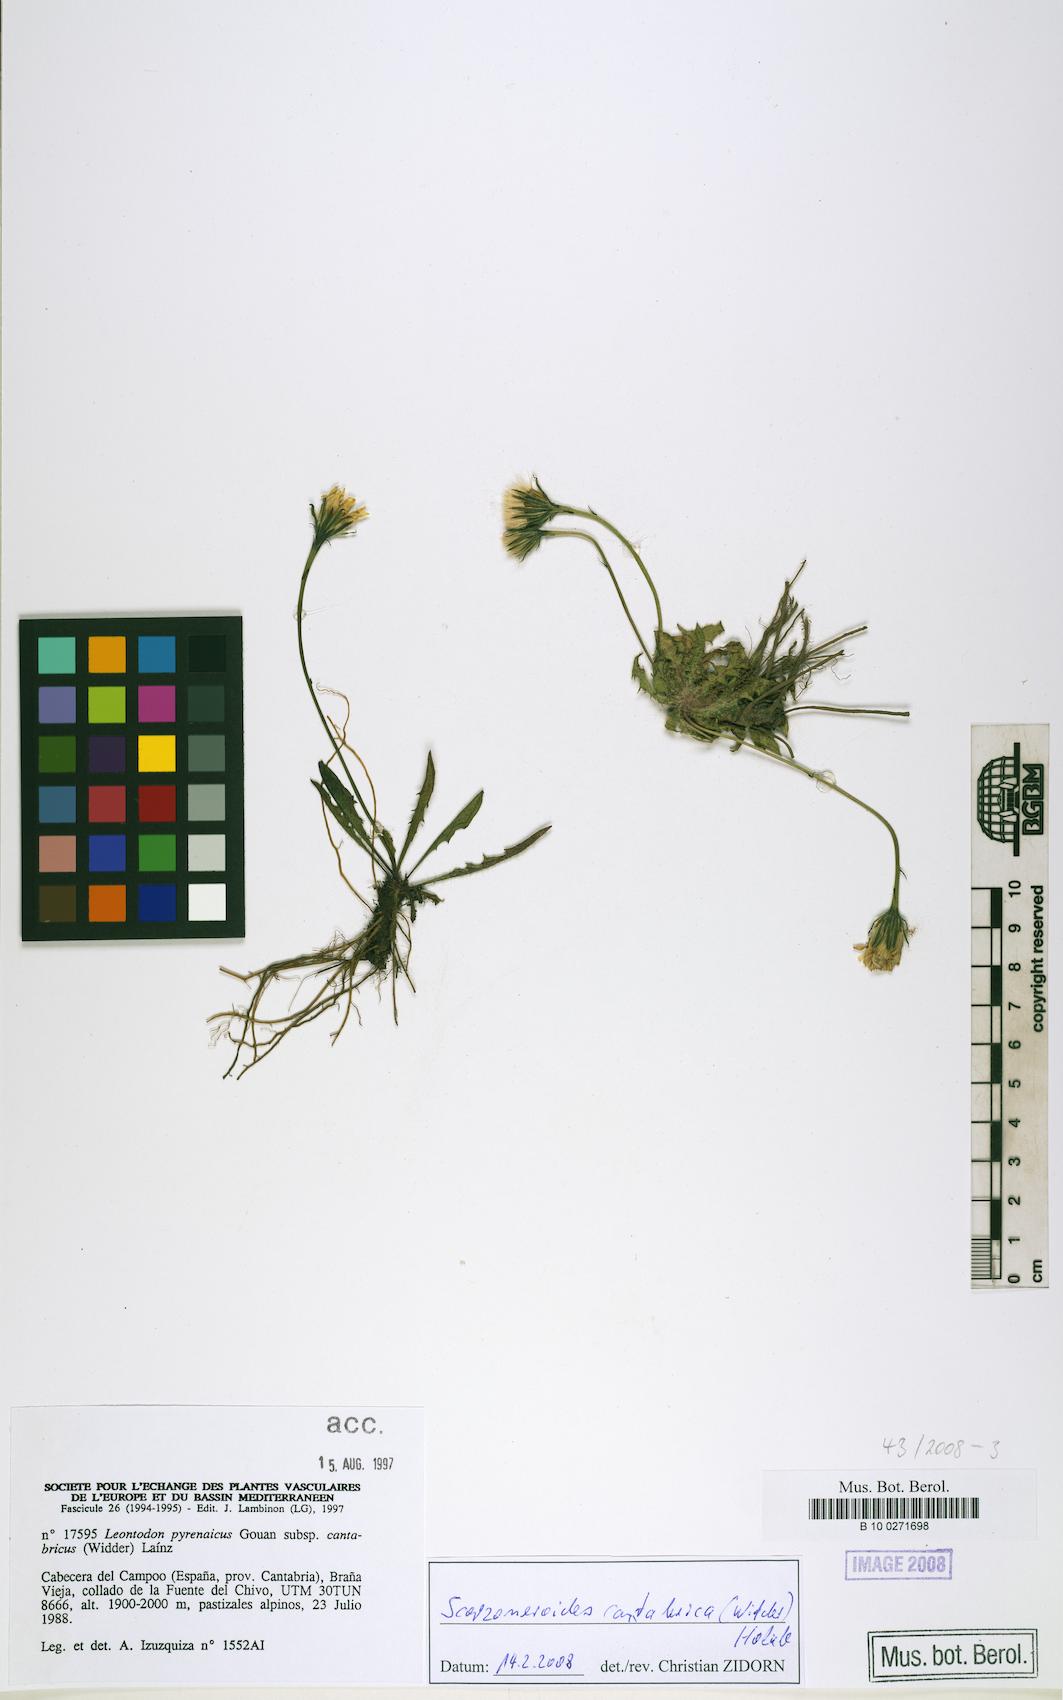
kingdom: Plantae
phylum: Tracheophyta
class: Magnoliopsida
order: Asterales
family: Asteraceae
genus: Scorzoneroides
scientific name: Scorzoneroides pyrenaica
